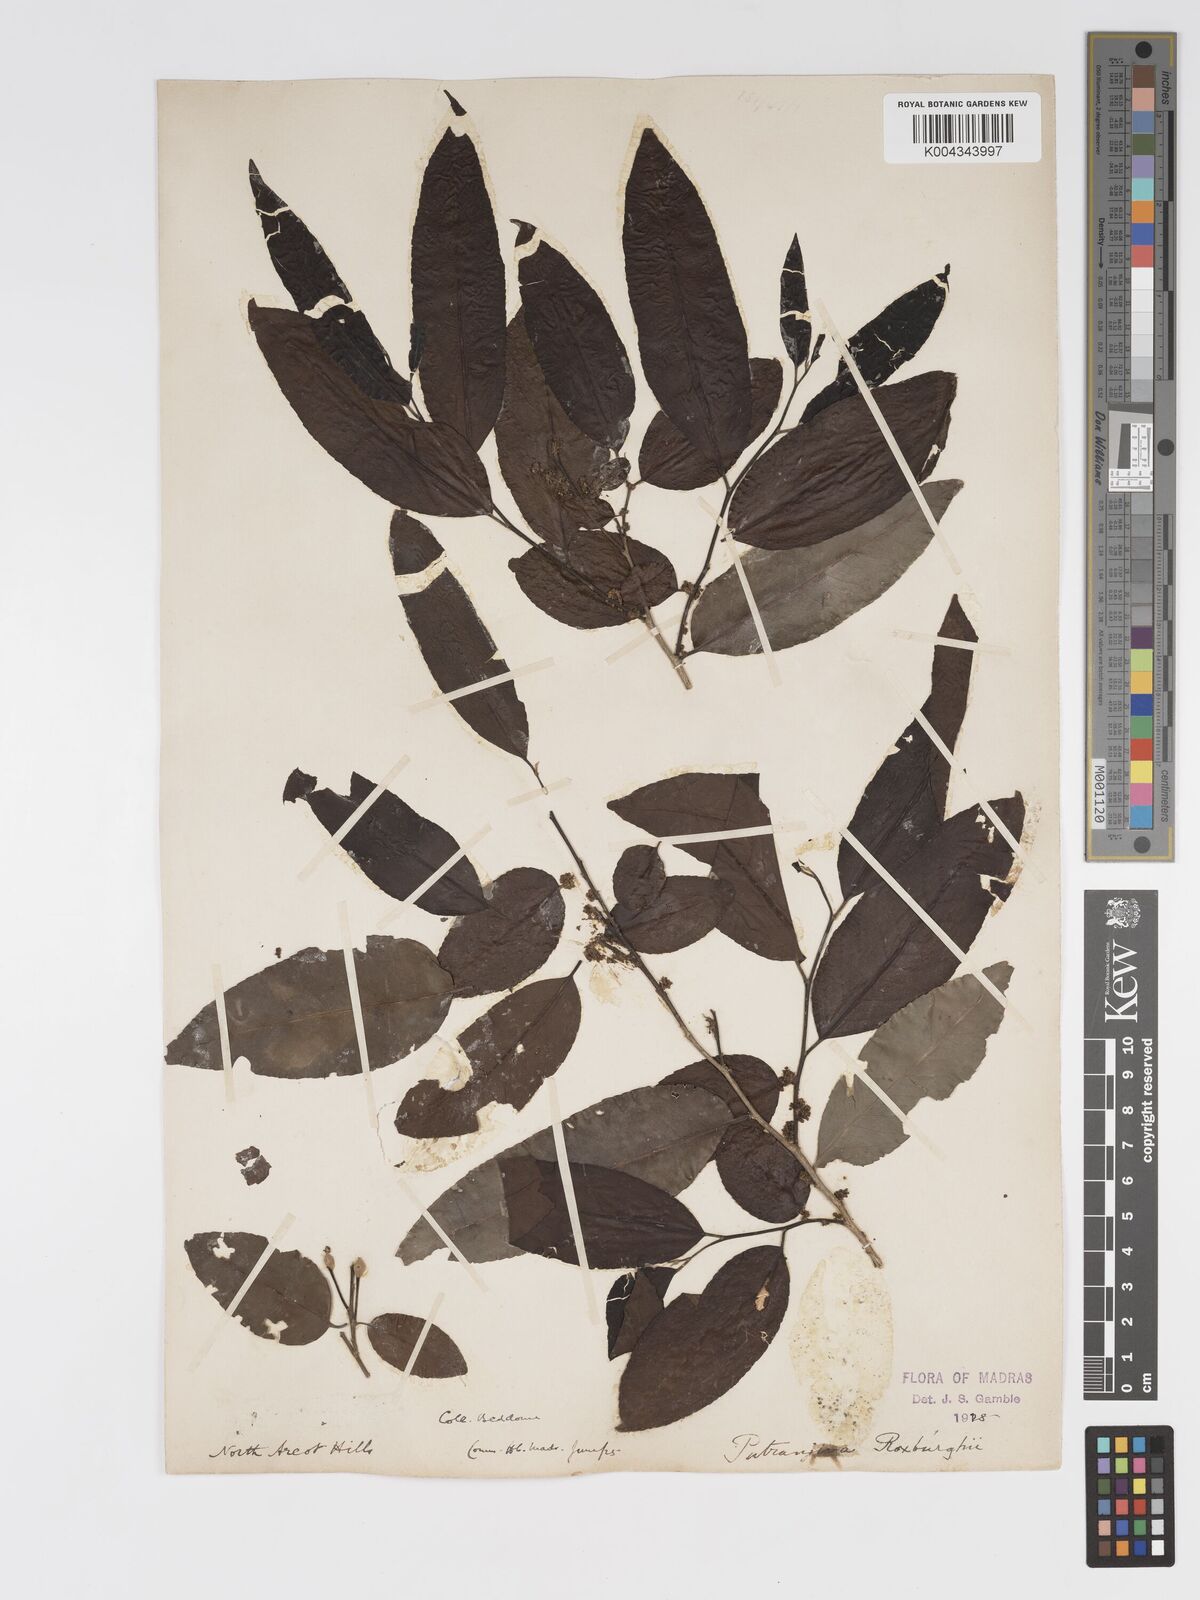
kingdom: Plantae
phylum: Tracheophyta
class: Magnoliopsida
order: Malpighiales
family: Putranjivaceae
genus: Putranjiva
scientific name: Putranjiva roxburghii
